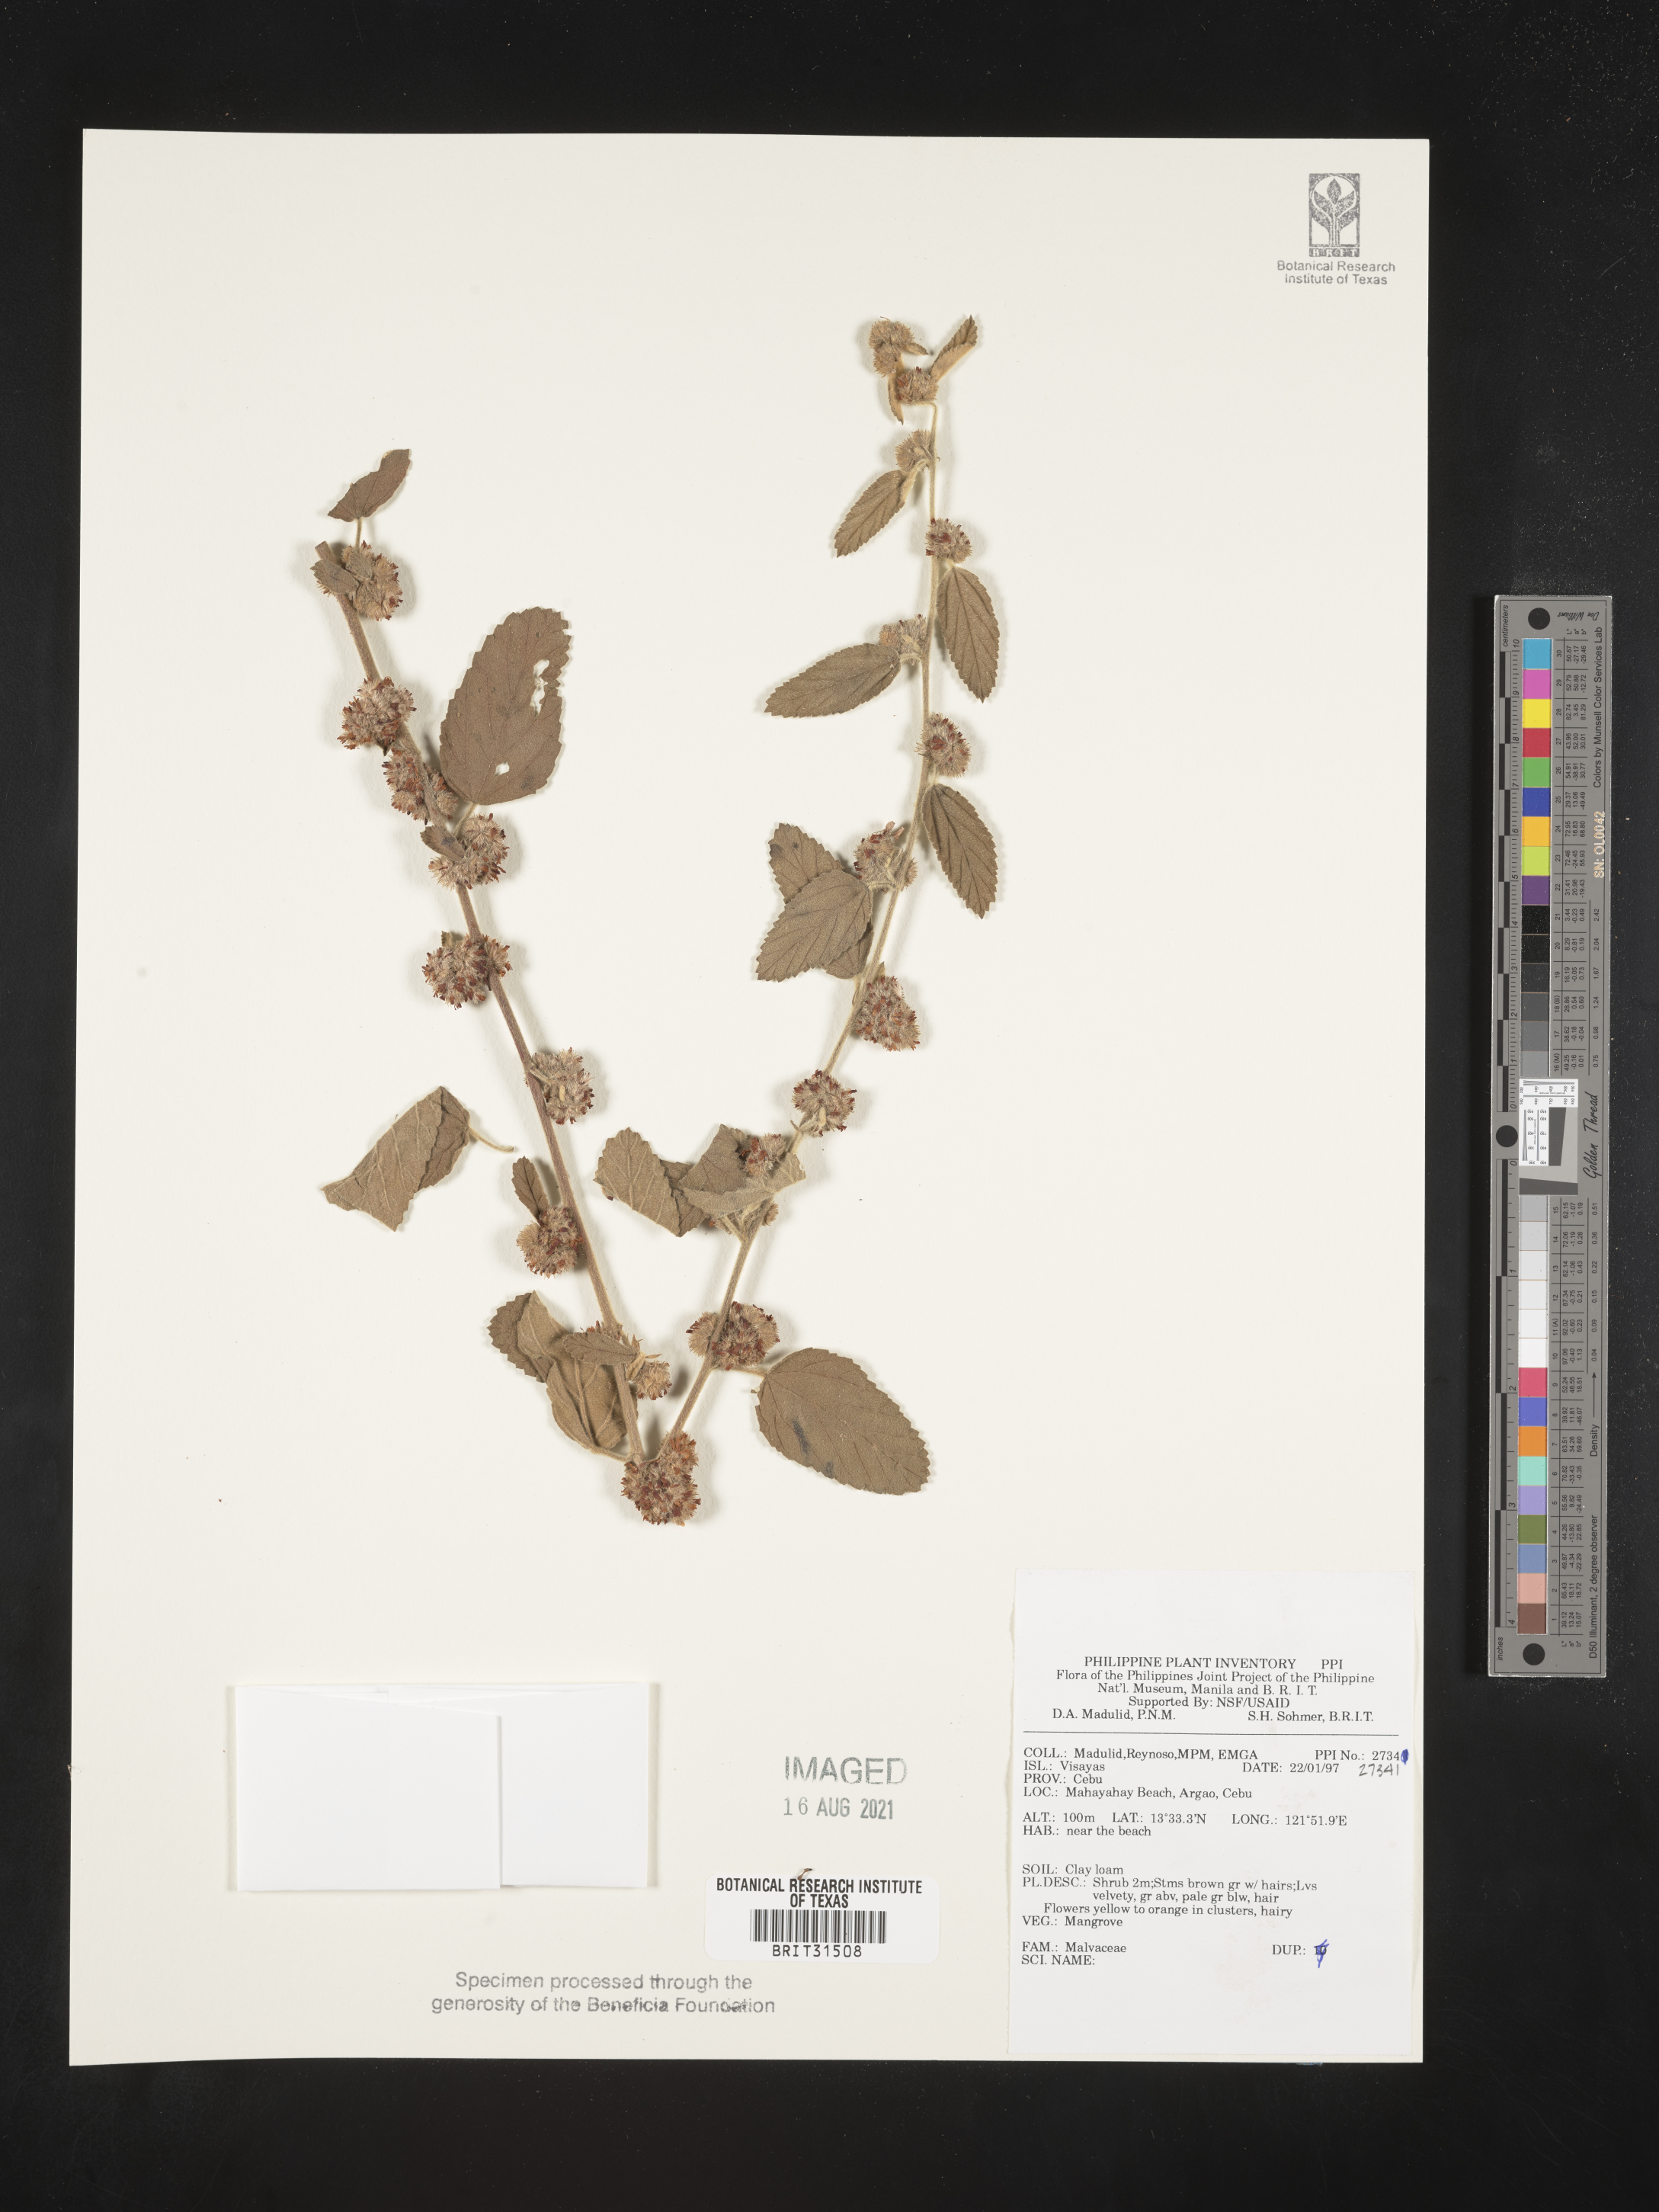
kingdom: Plantae
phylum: Tracheophyta
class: Magnoliopsida
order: Malvales
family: Malvaceae
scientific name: Malvaceae
